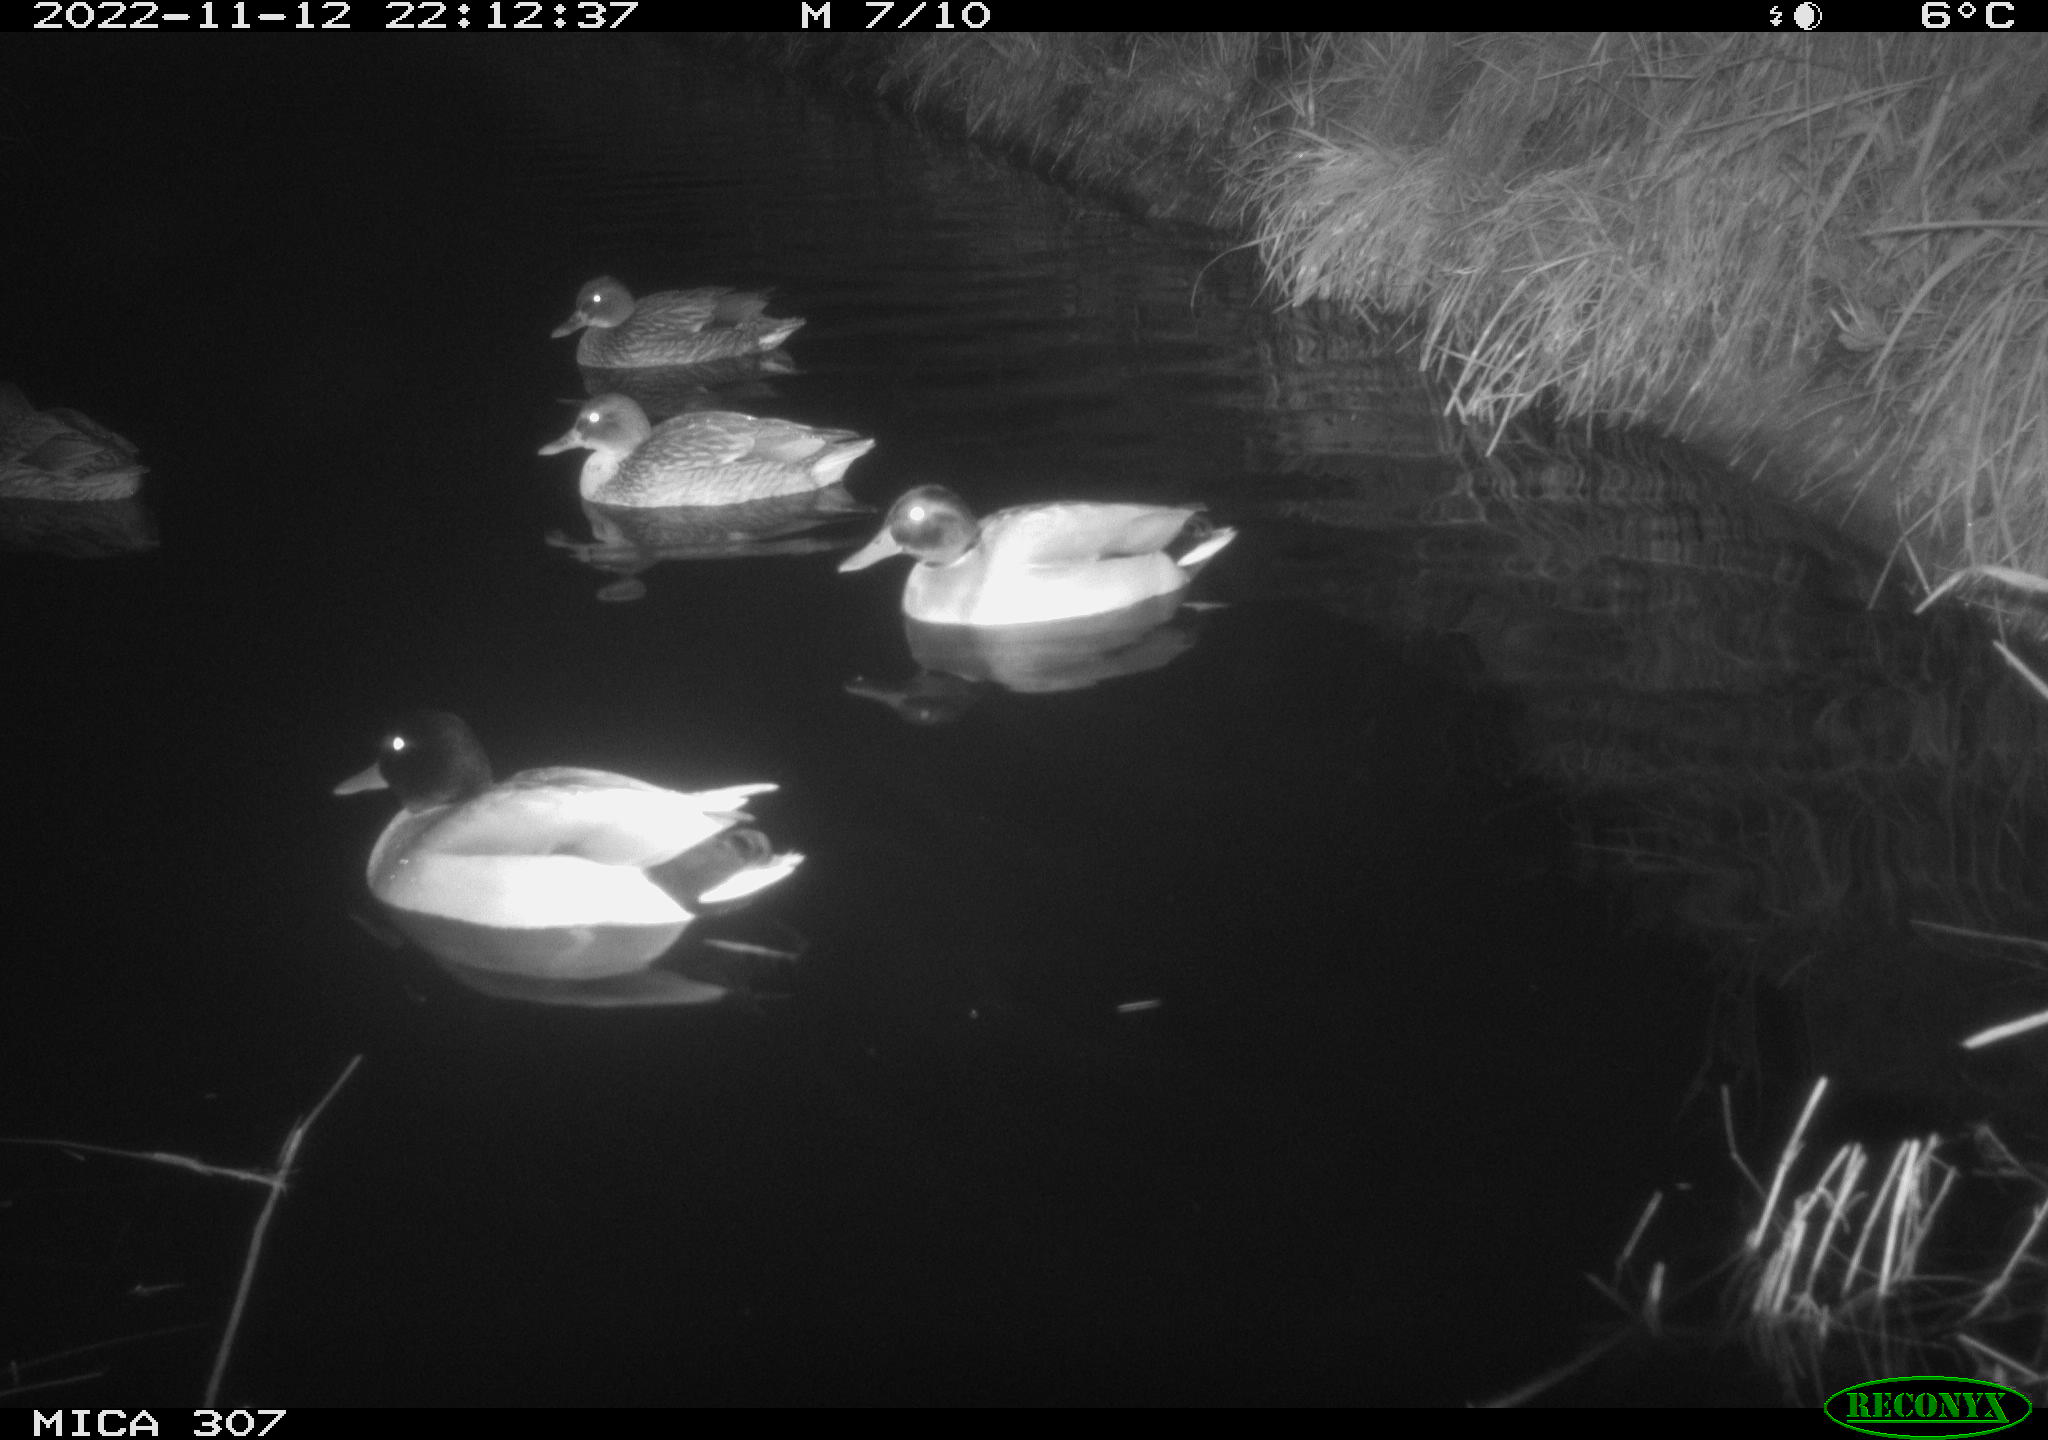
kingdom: Animalia
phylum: Chordata
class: Aves
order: Anseriformes
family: Anatidae
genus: Anas
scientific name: Anas
